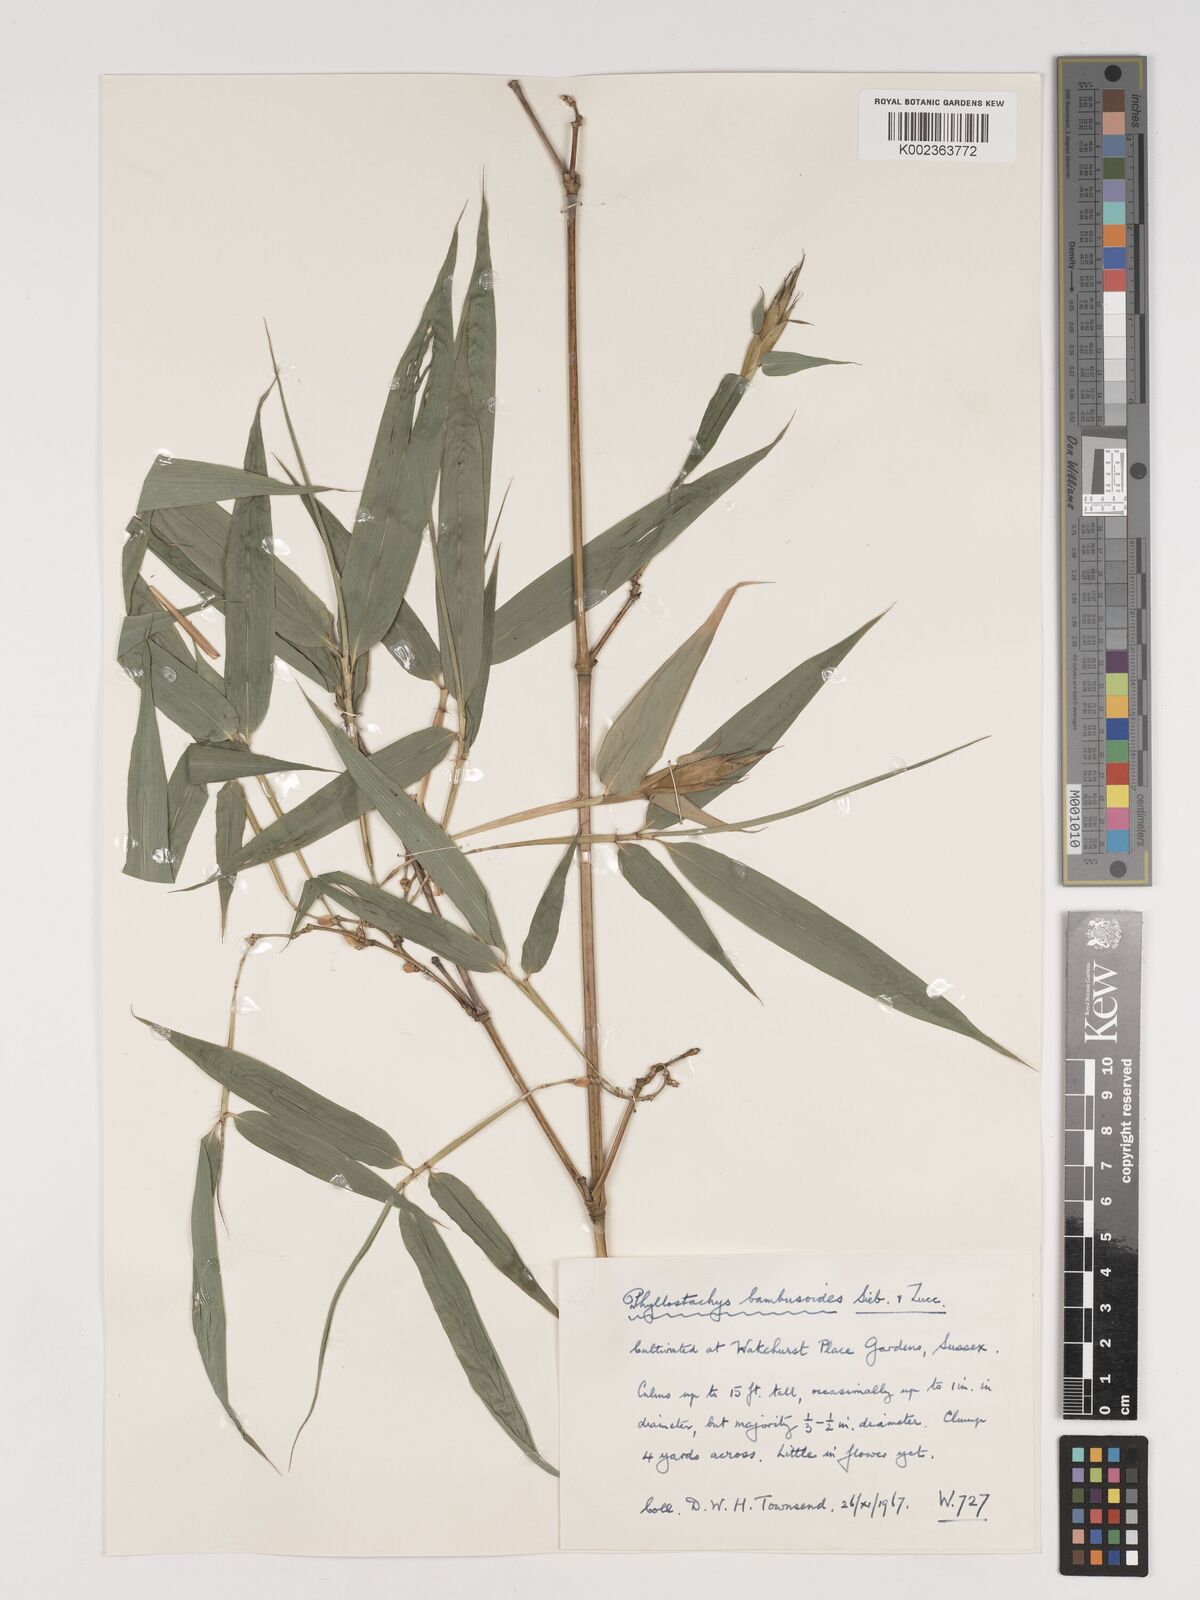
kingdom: Plantae
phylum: Tracheophyta
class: Liliopsida
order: Poales
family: Poaceae
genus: Phyllostachys
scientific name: Phyllostachys reticulata
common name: Bamboo
